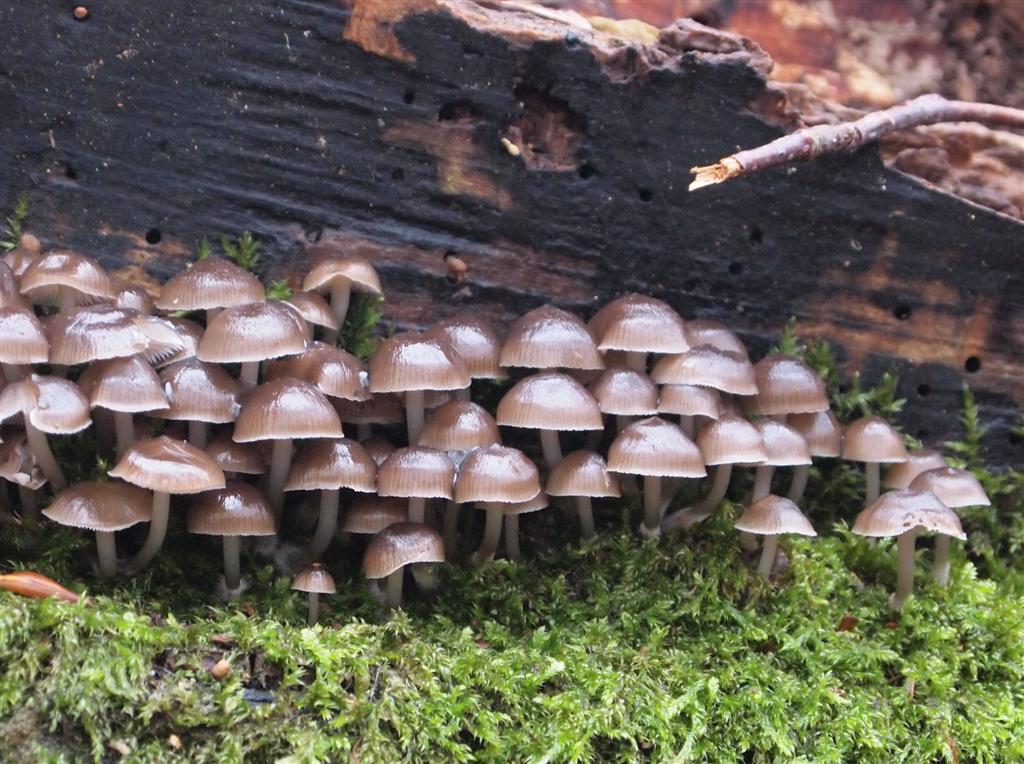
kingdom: Fungi
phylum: Basidiomycota
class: Agaricomycetes
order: Agaricales
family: Mycenaceae
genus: Mycena
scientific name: Mycena tintinnabulum
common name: vinter-huesvamp
